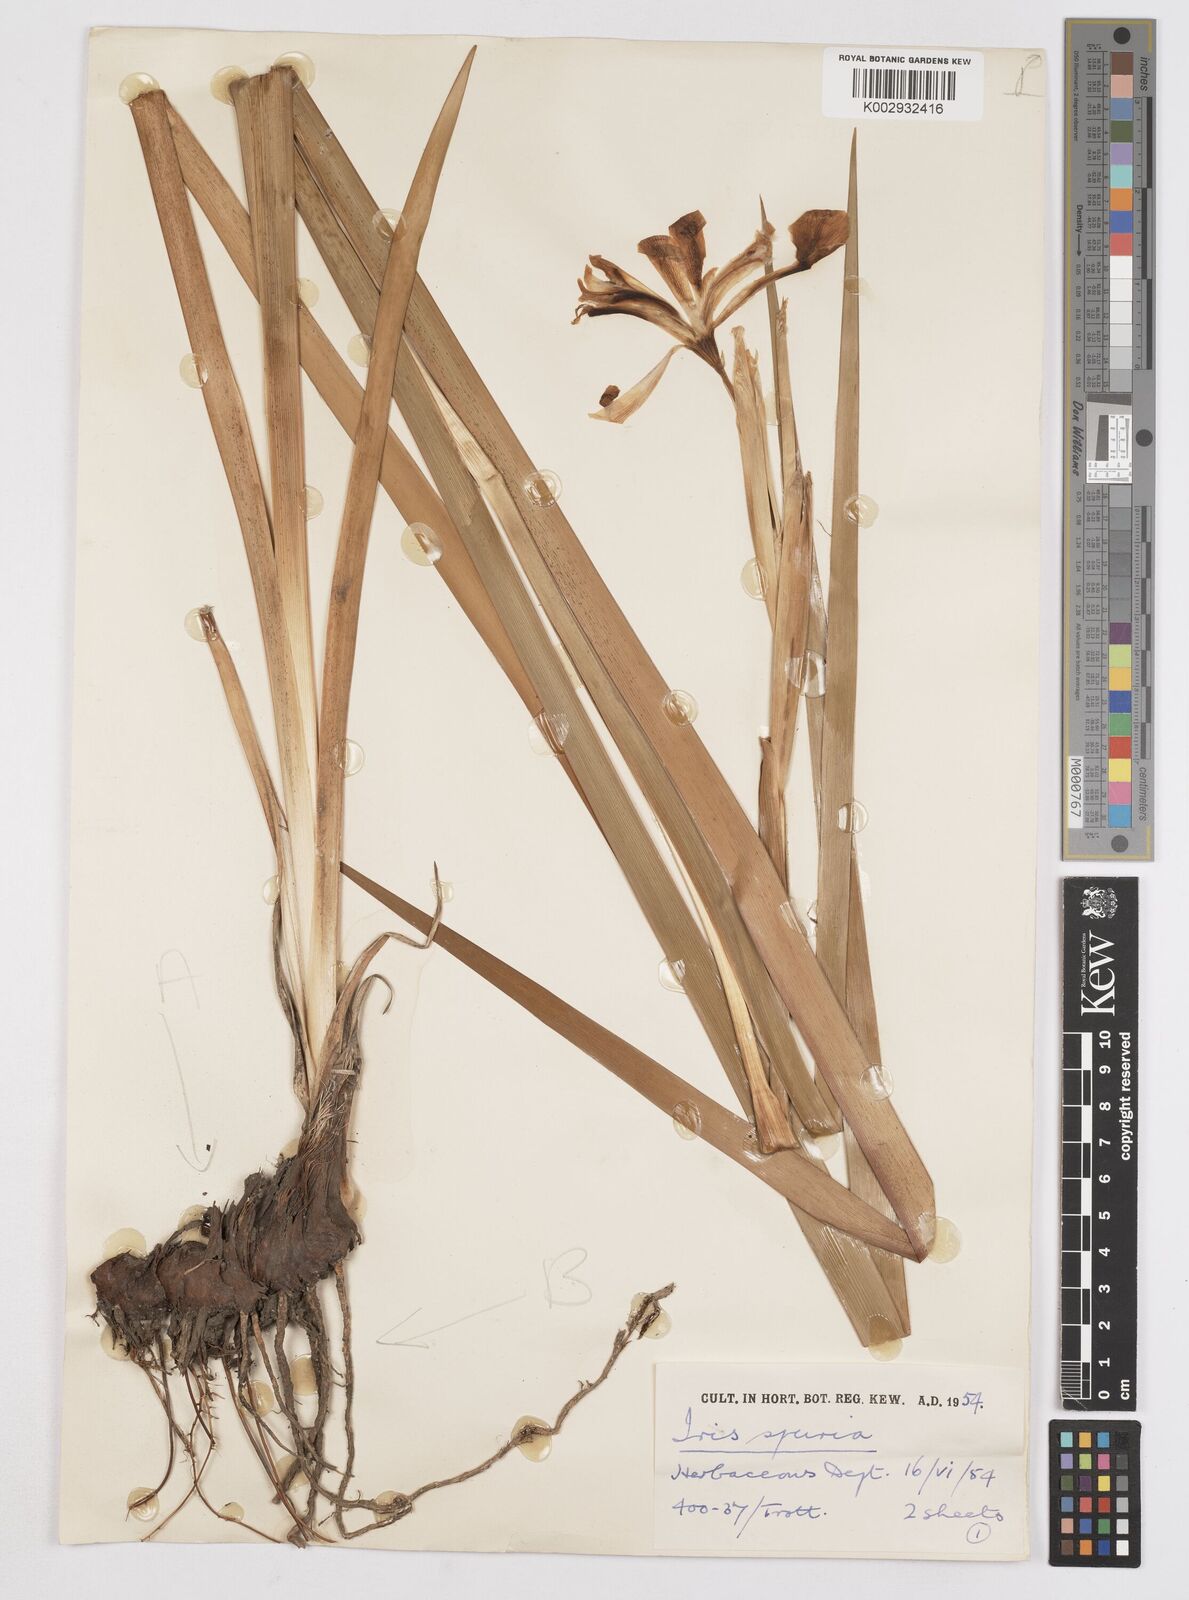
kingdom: Plantae
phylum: Tracheophyta
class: Liliopsida
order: Asparagales
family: Iridaceae
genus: Iris
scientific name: Iris spuria
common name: Blue iris
